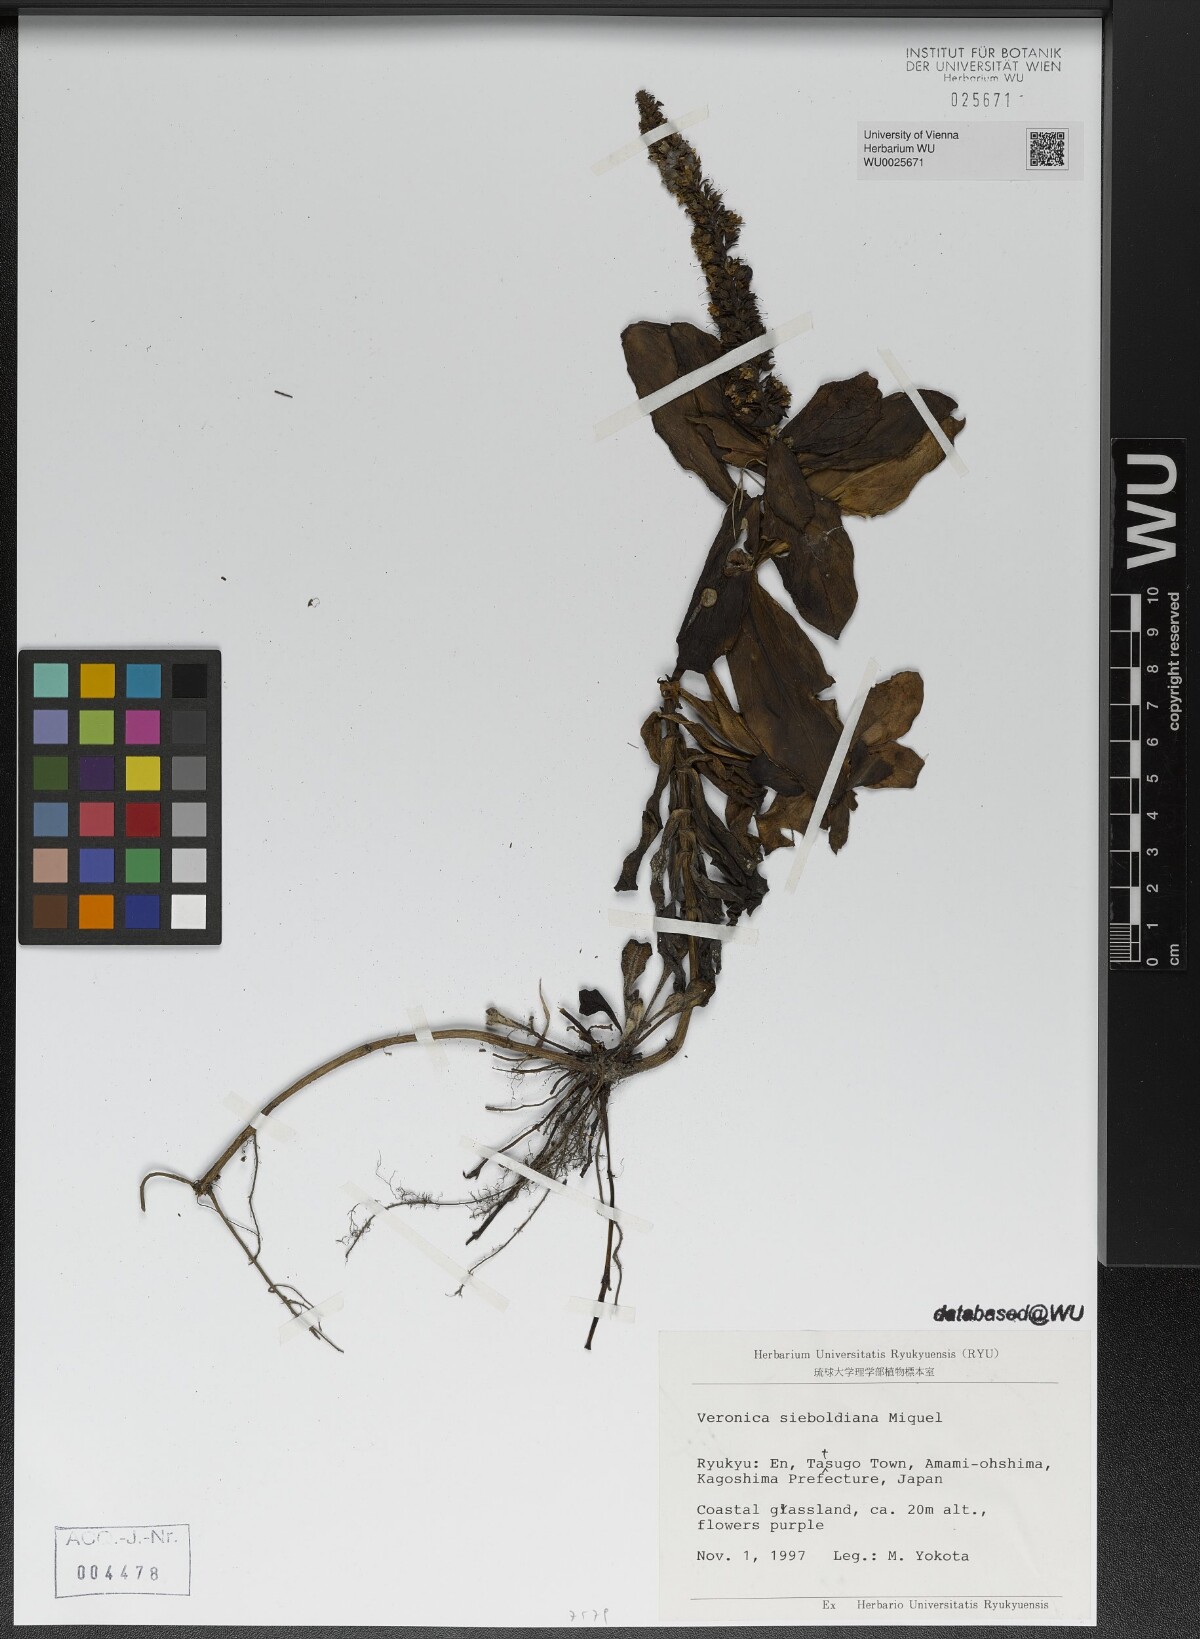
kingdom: Plantae
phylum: Tracheophyta
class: Magnoliopsida
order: Lamiales
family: Plantaginaceae
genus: Veronica
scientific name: Veronica sieboldiana
